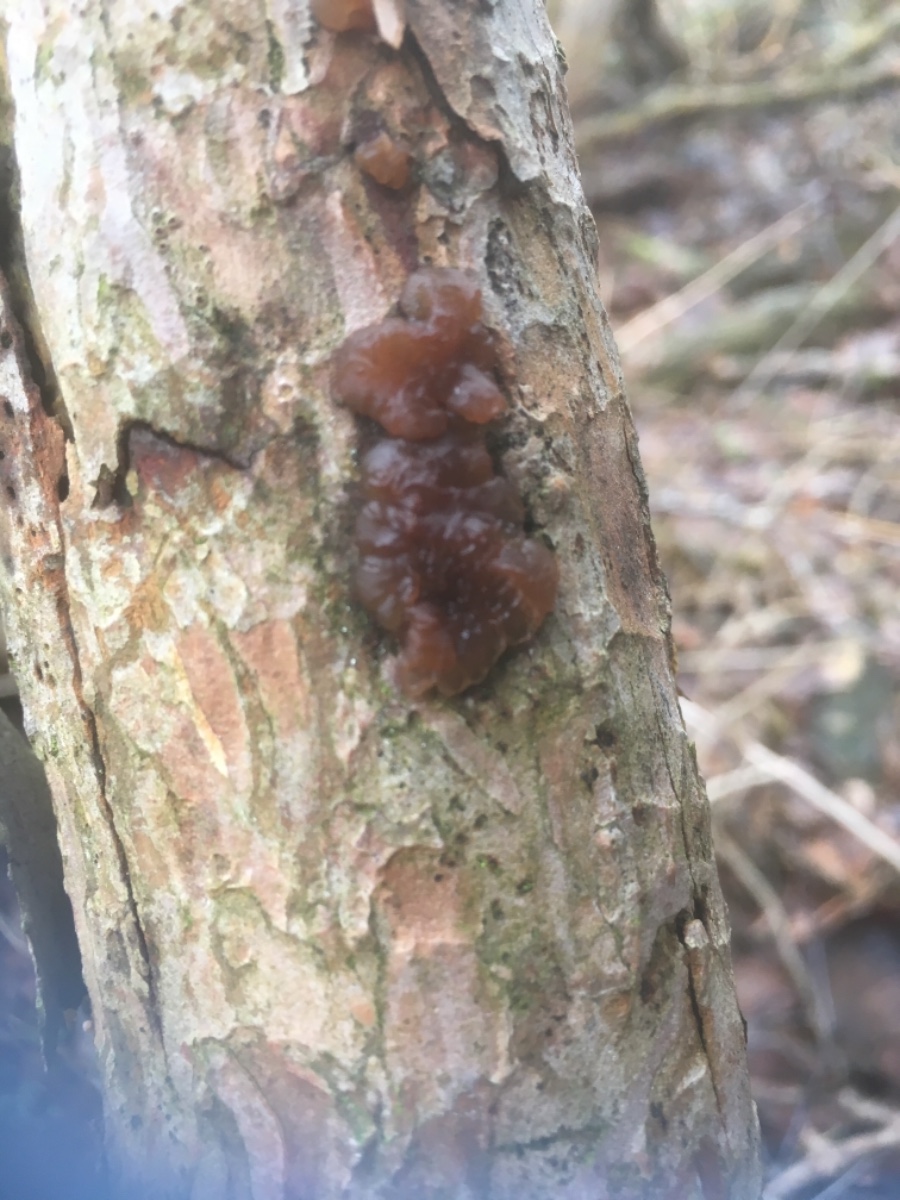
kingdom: Fungi
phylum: Basidiomycota
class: Agaricomycetes
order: Auriculariales
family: Auriculariaceae
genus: Exidia
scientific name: Exidia saccharina
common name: kandis-bævretop
